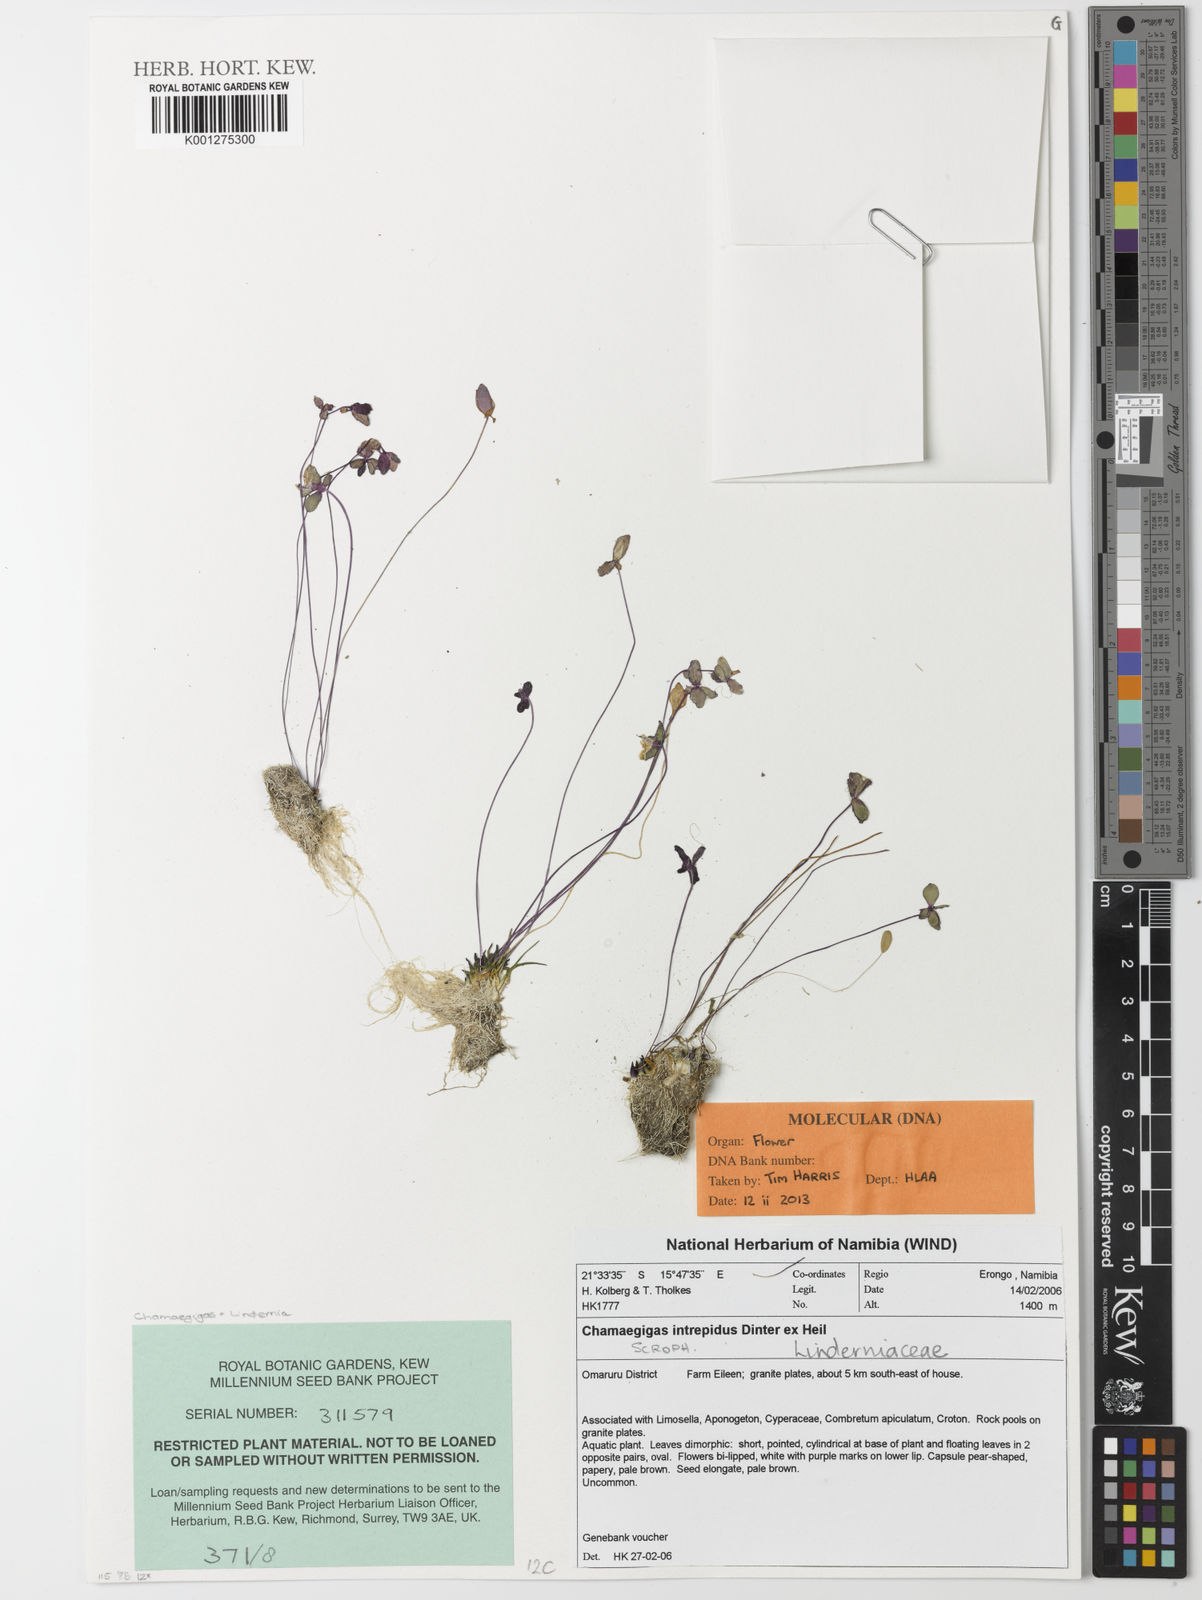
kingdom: Plantae
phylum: Tracheophyta
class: Magnoliopsida
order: Lamiales
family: Linderniaceae
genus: Chamaegigas
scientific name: Chamaegigas intrepidus
